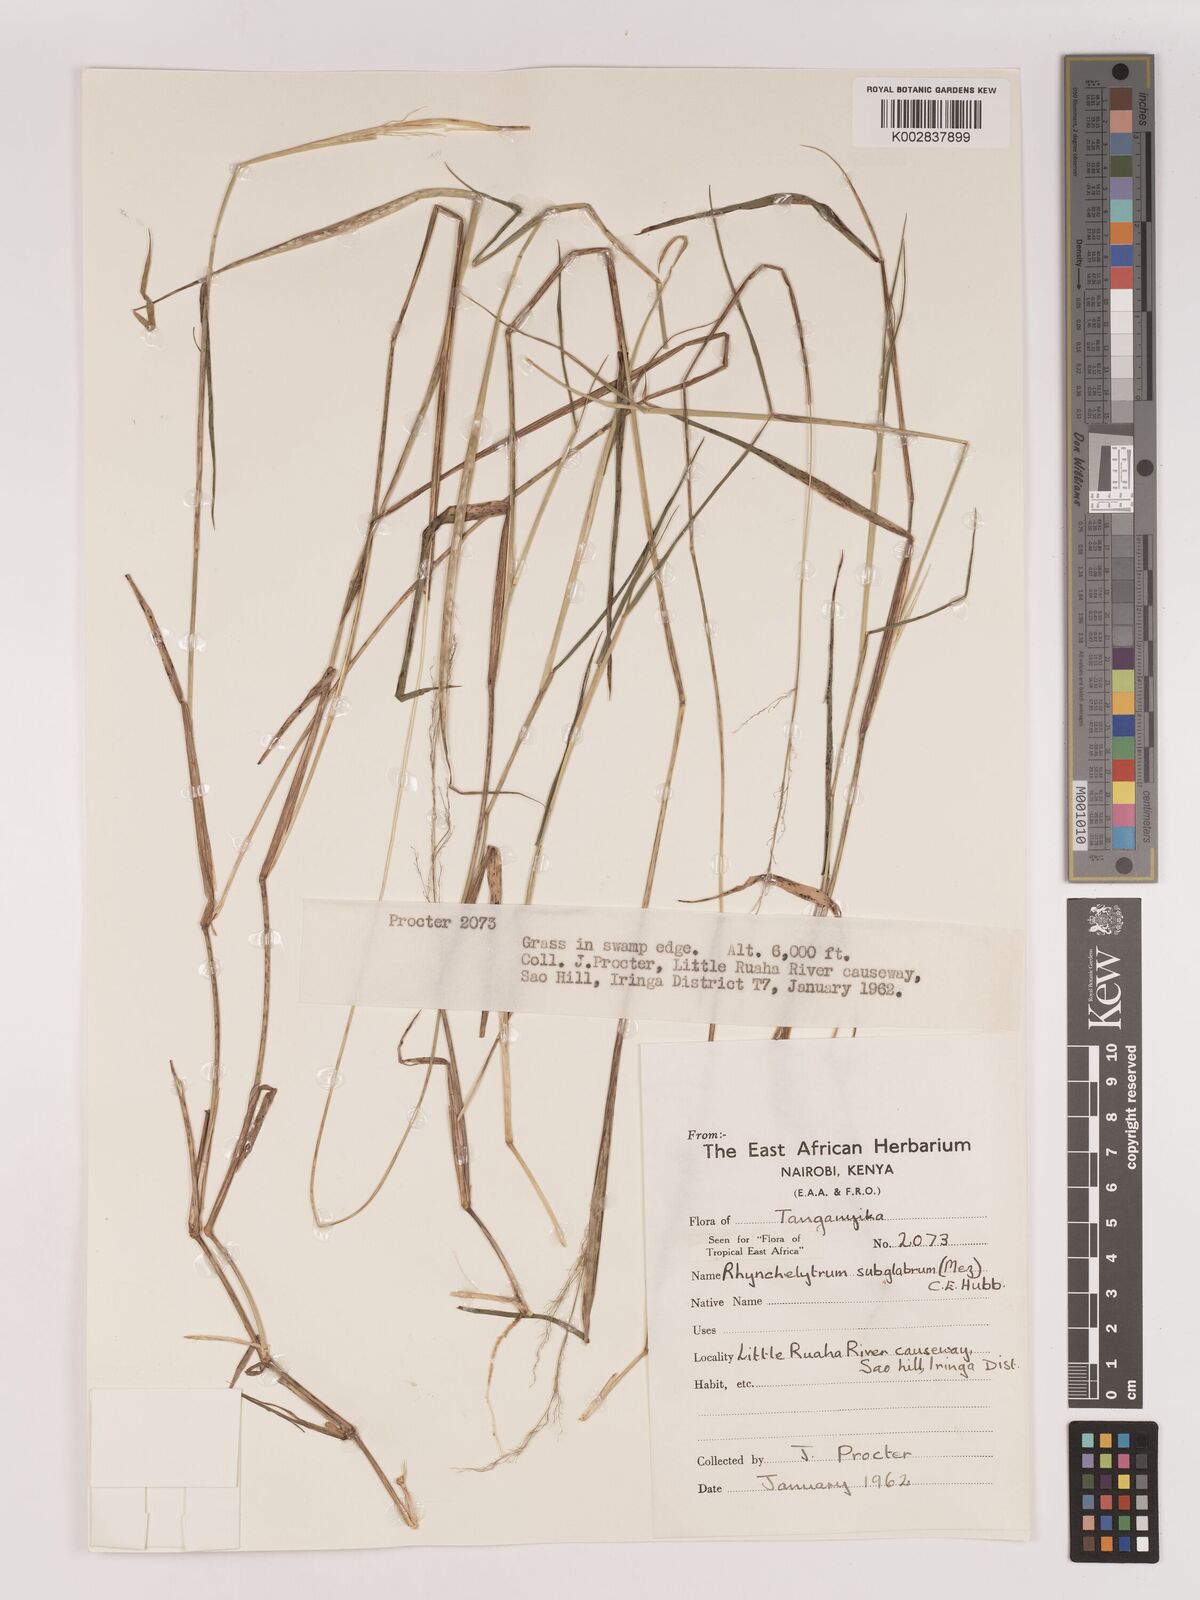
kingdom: Plantae
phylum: Tracheophyta
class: Liliopsida
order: Poales
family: Poaceae
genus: Melinis
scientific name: Melinis subglabra
